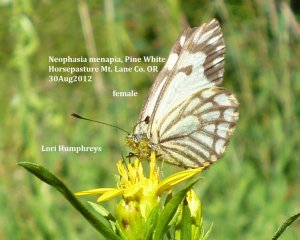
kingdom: Animalia
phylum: Arthropoda
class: Insecta
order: Lepidoptera
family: Pieridae
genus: Neophasia
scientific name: Neophasia menapia
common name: Pine White
